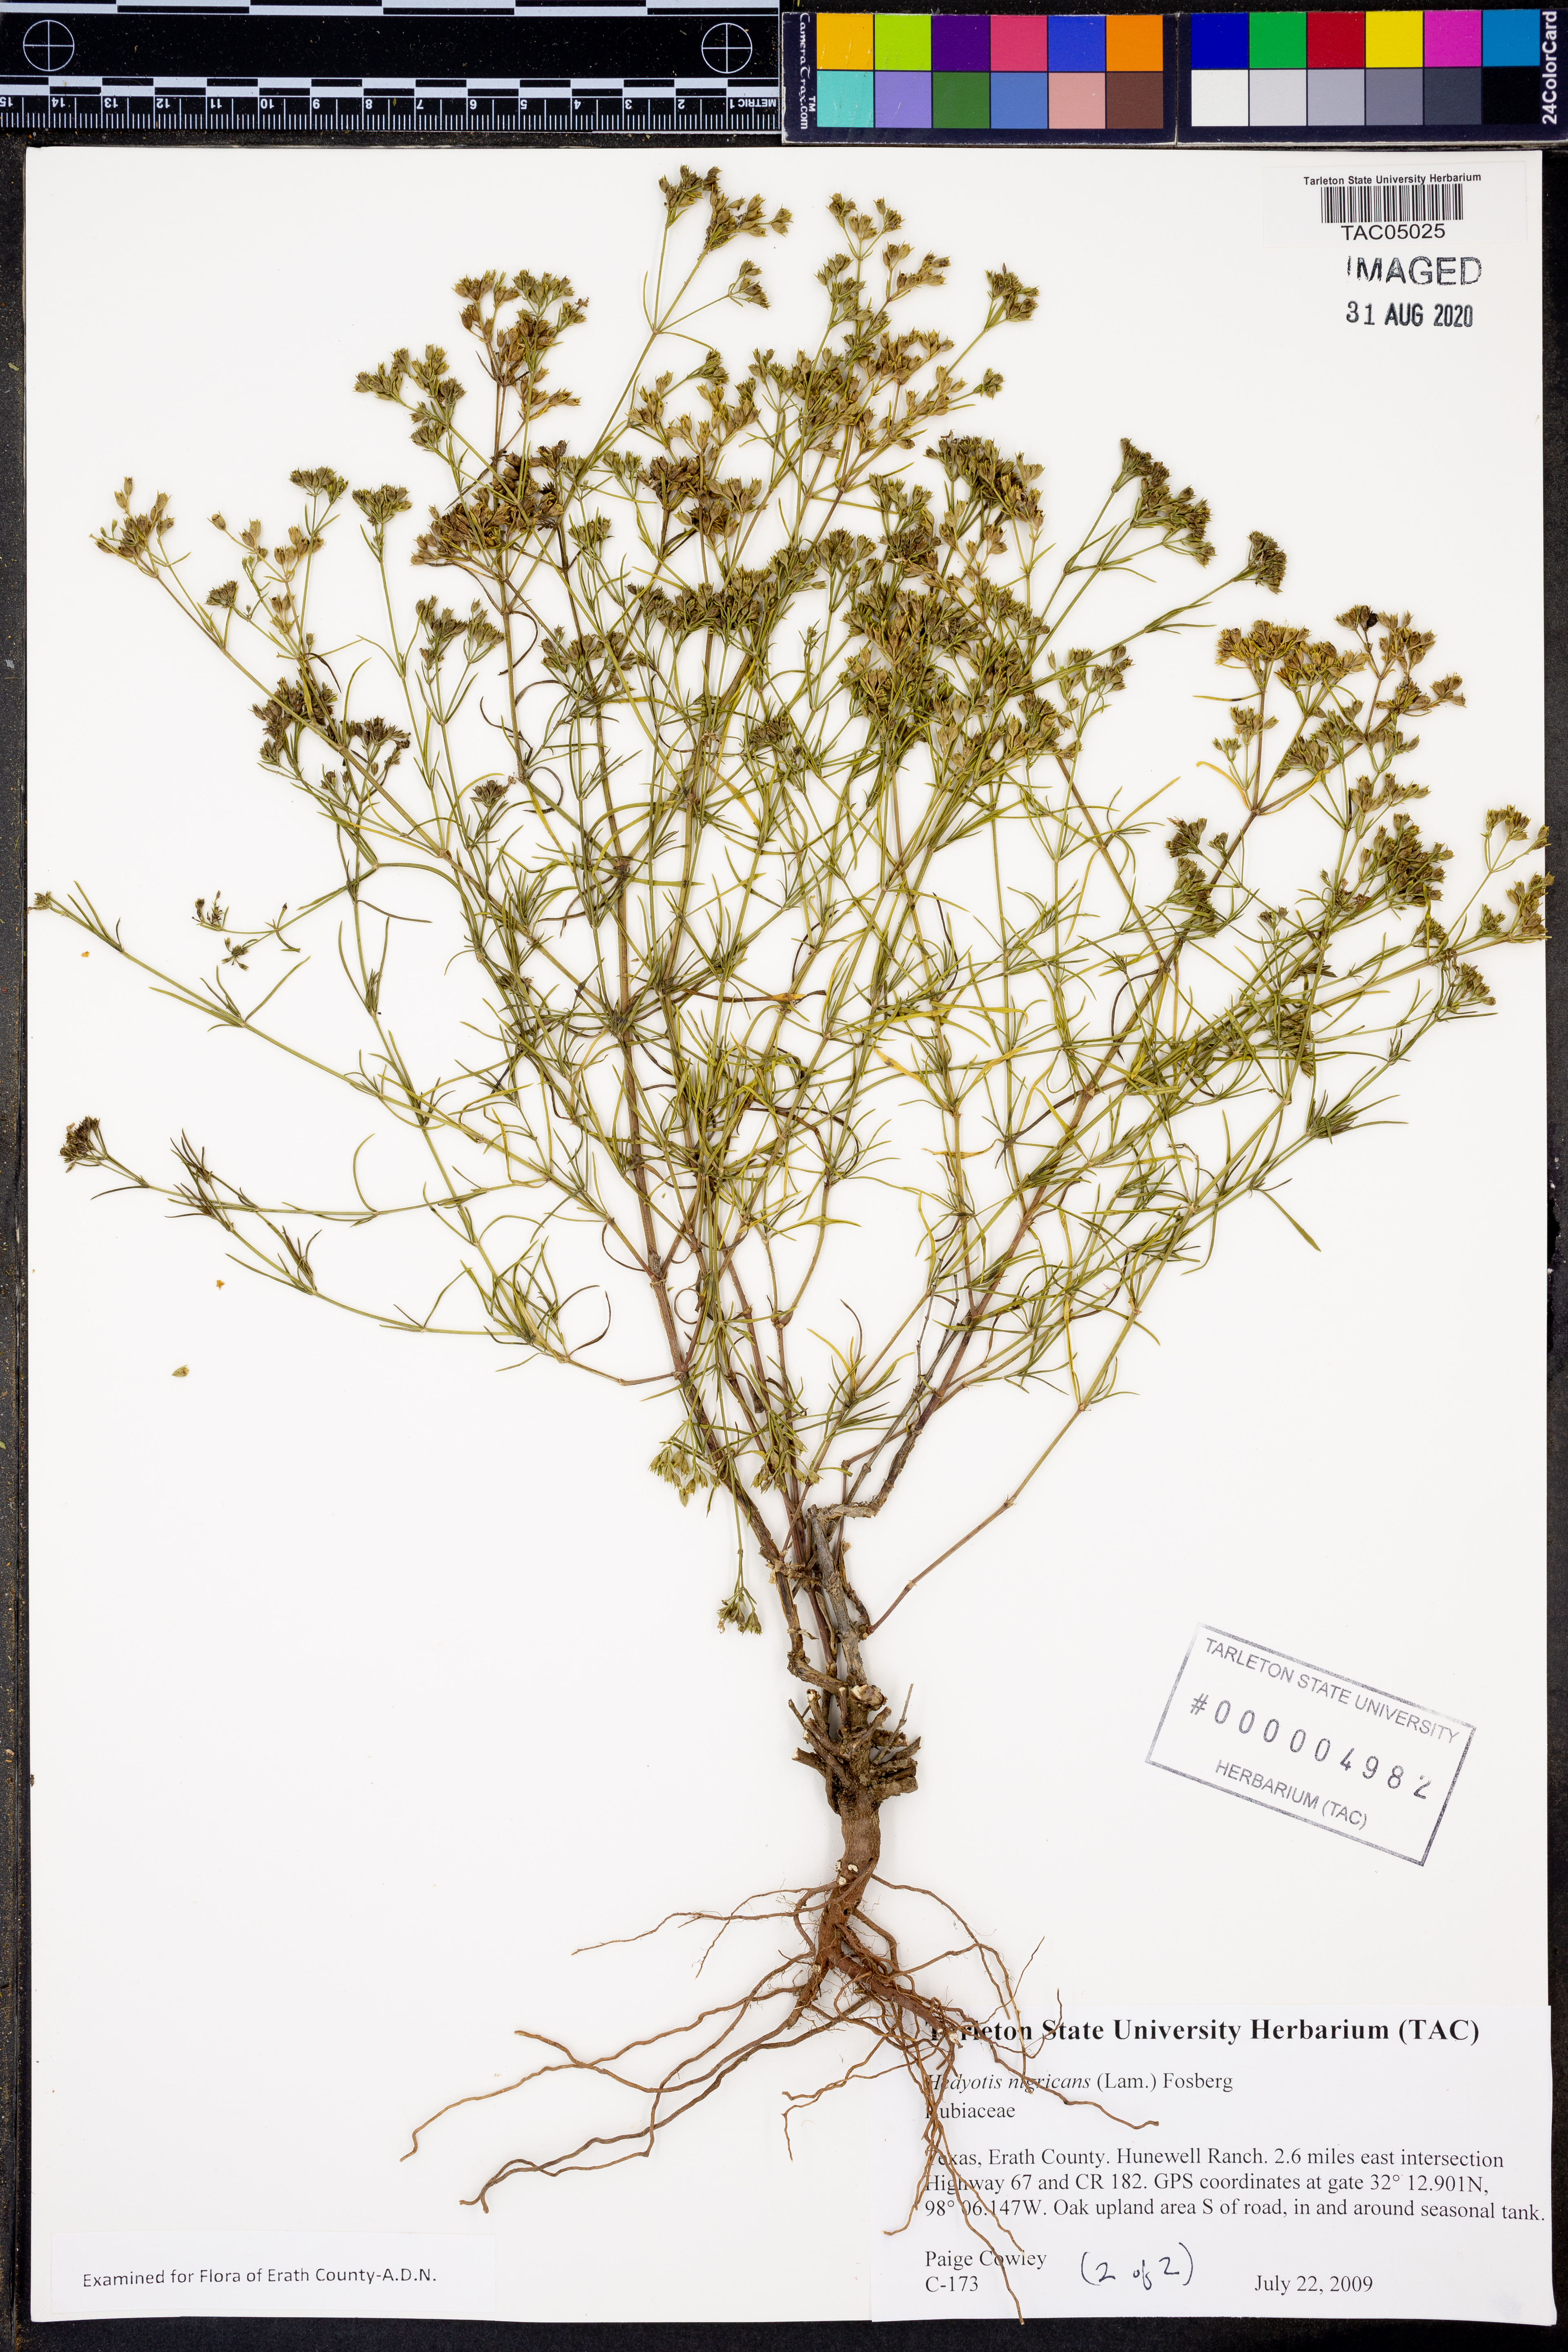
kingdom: Plantae
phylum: Tracheophyta
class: Magnoliopsida
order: Gentianales
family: Rubiaceae
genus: Stenaria
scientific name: Stenaria nigricans
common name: Diamondflowers
